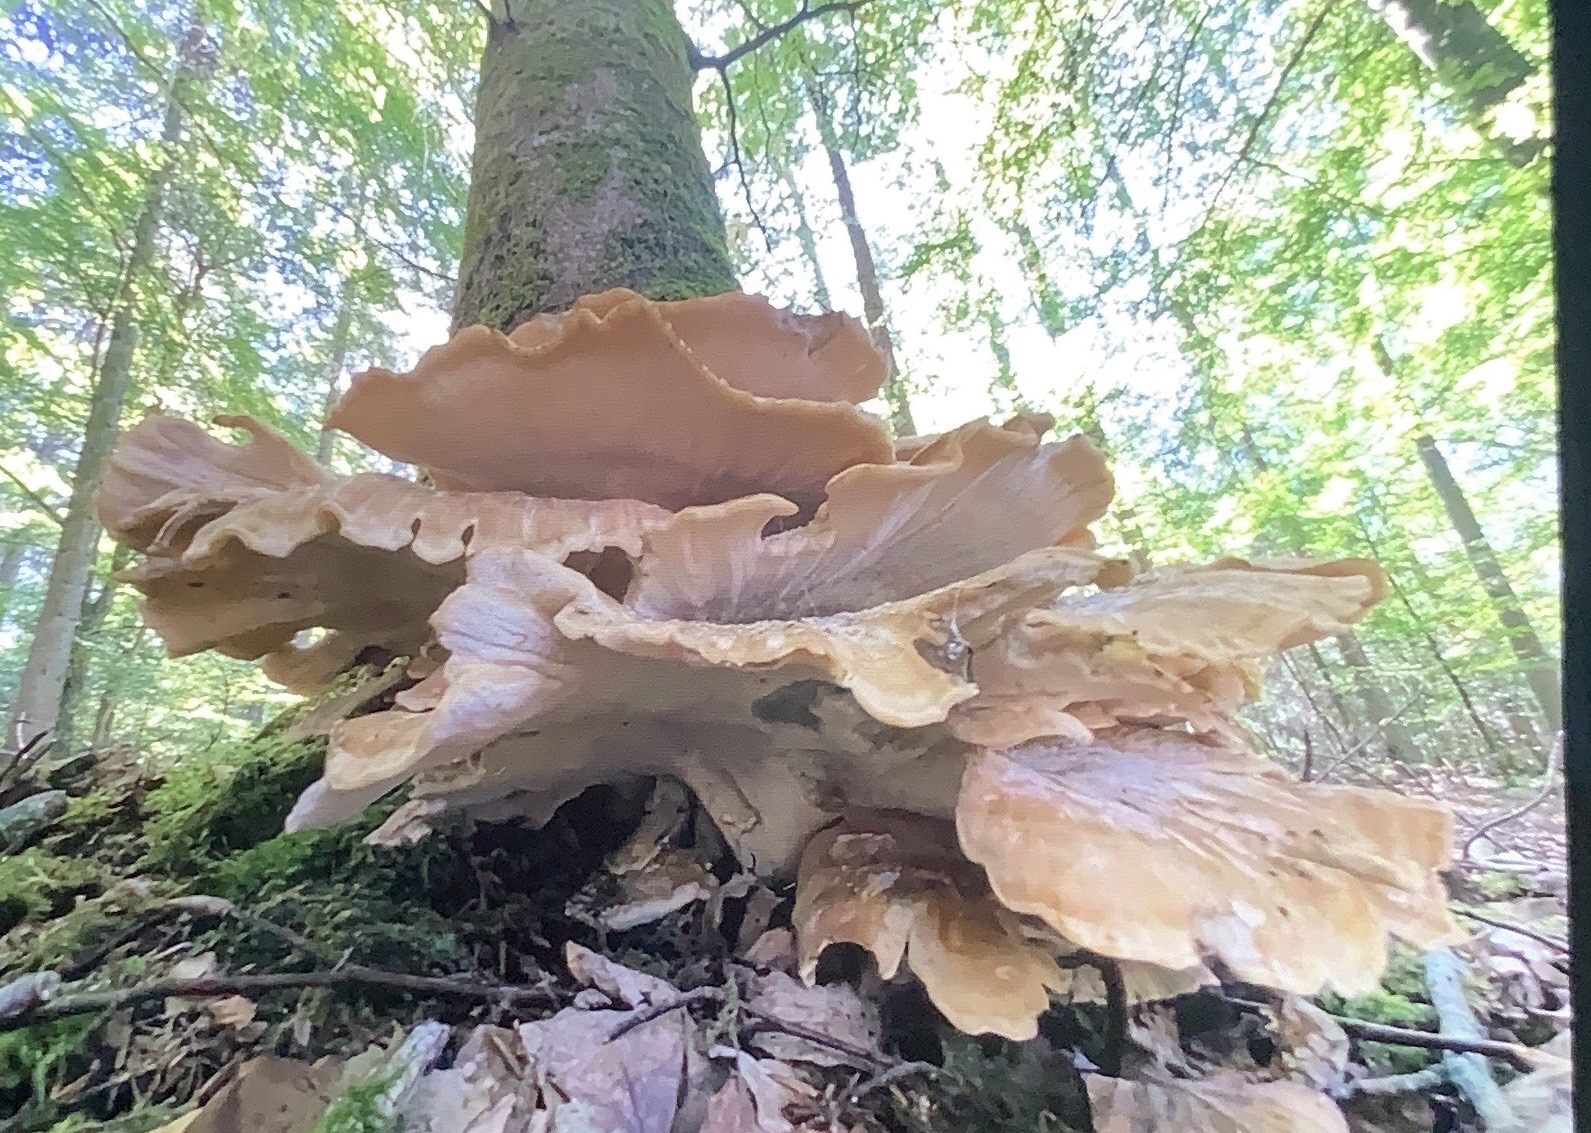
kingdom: Fungi
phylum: Basidiomycota
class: Agaricomycetes
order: Polyporales
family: Meripilaceae
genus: Meripilus
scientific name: Meripilus giganteus
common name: kæmpeporesvamp
